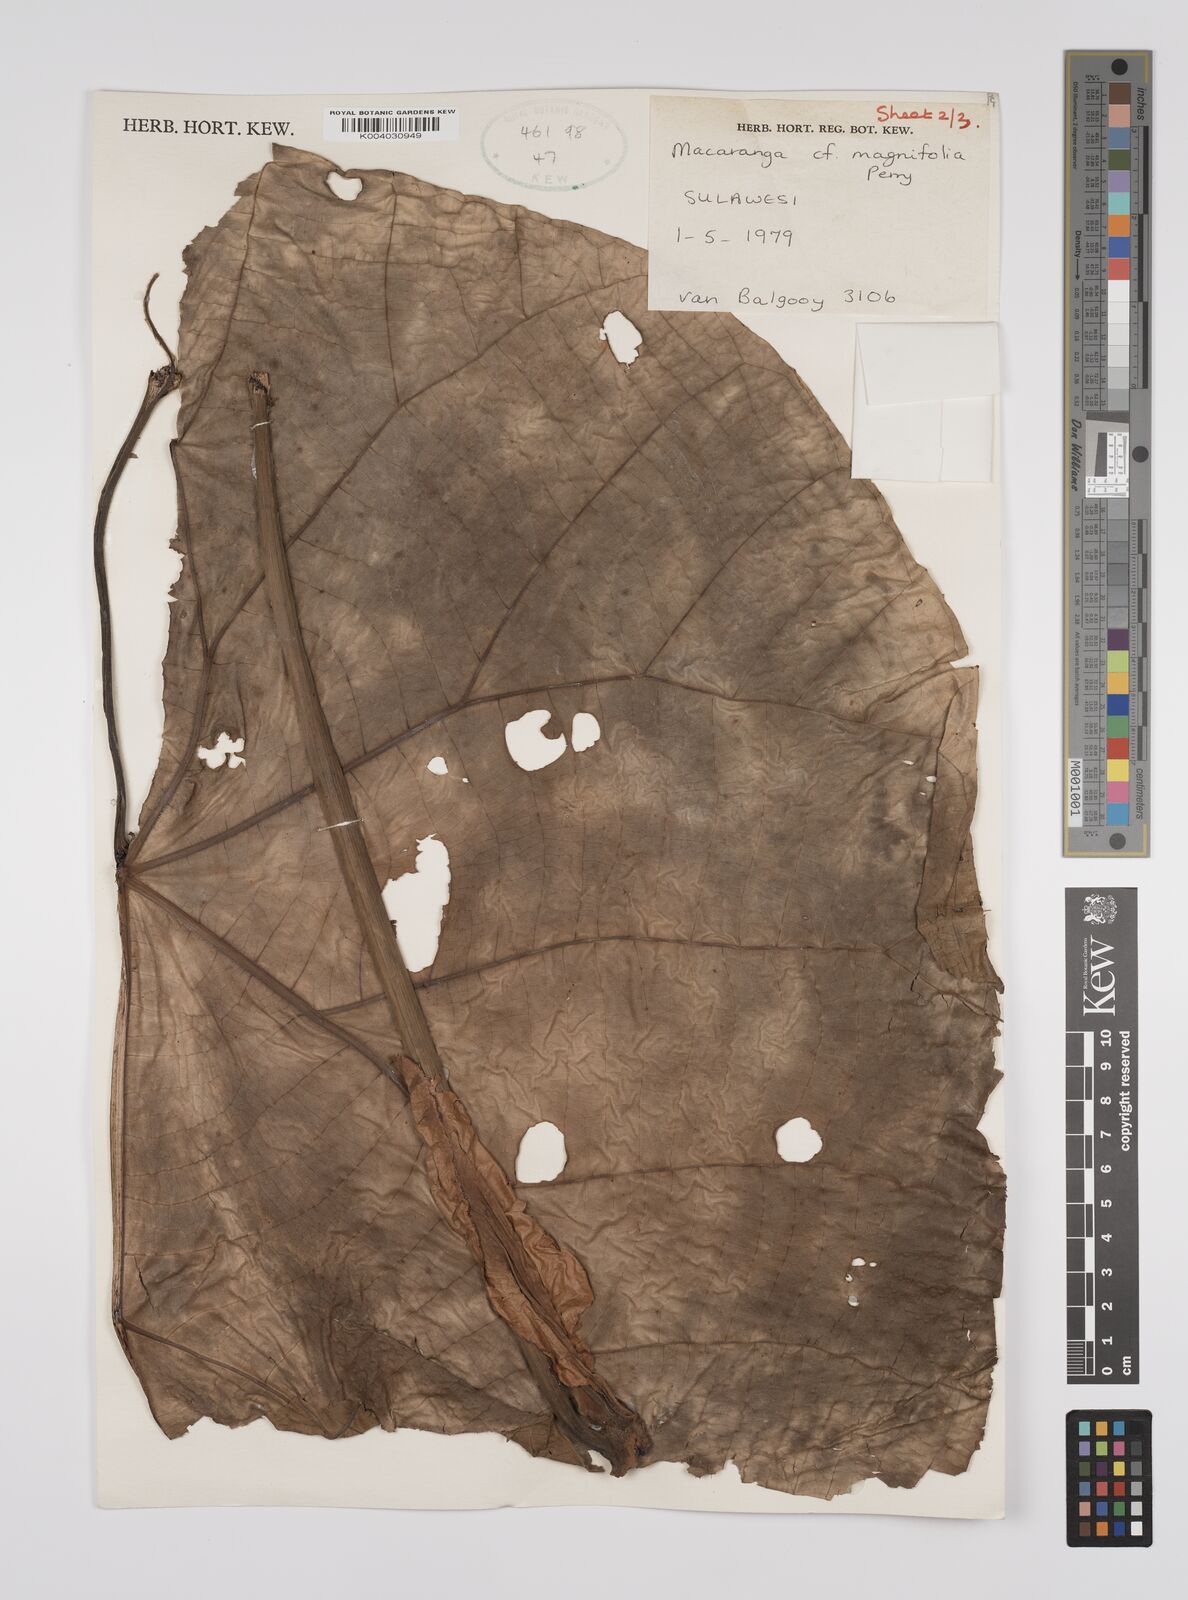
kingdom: Plantae
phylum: Tracheophyta
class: Magnoliopsida
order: Malpighiales
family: Euphorbiaceae
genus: Macaranga
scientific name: Macaranga mappa
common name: Pengua
